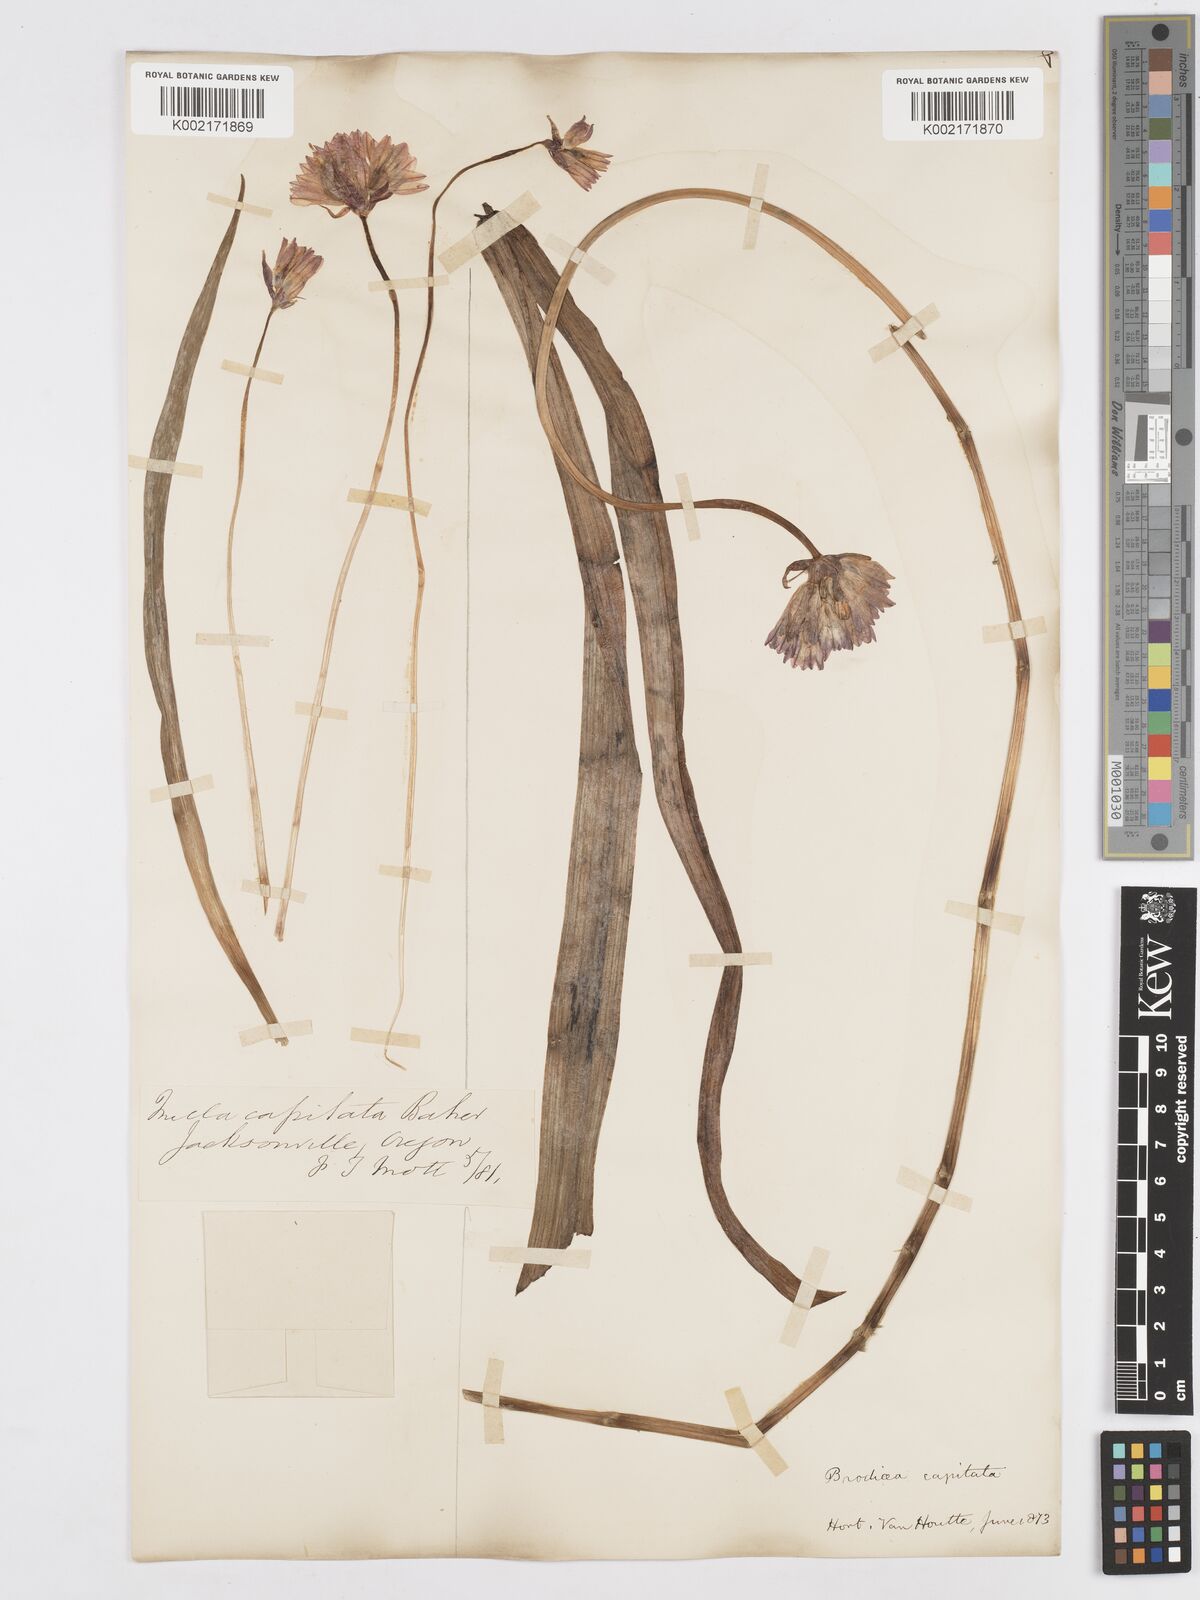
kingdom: Plantae
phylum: Tracheophyta
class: Liliopsida
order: Asparagales
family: Asparagaceae
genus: Dichelostemma
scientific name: Dichelostemma congestum
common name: Fork-tooth ookow
